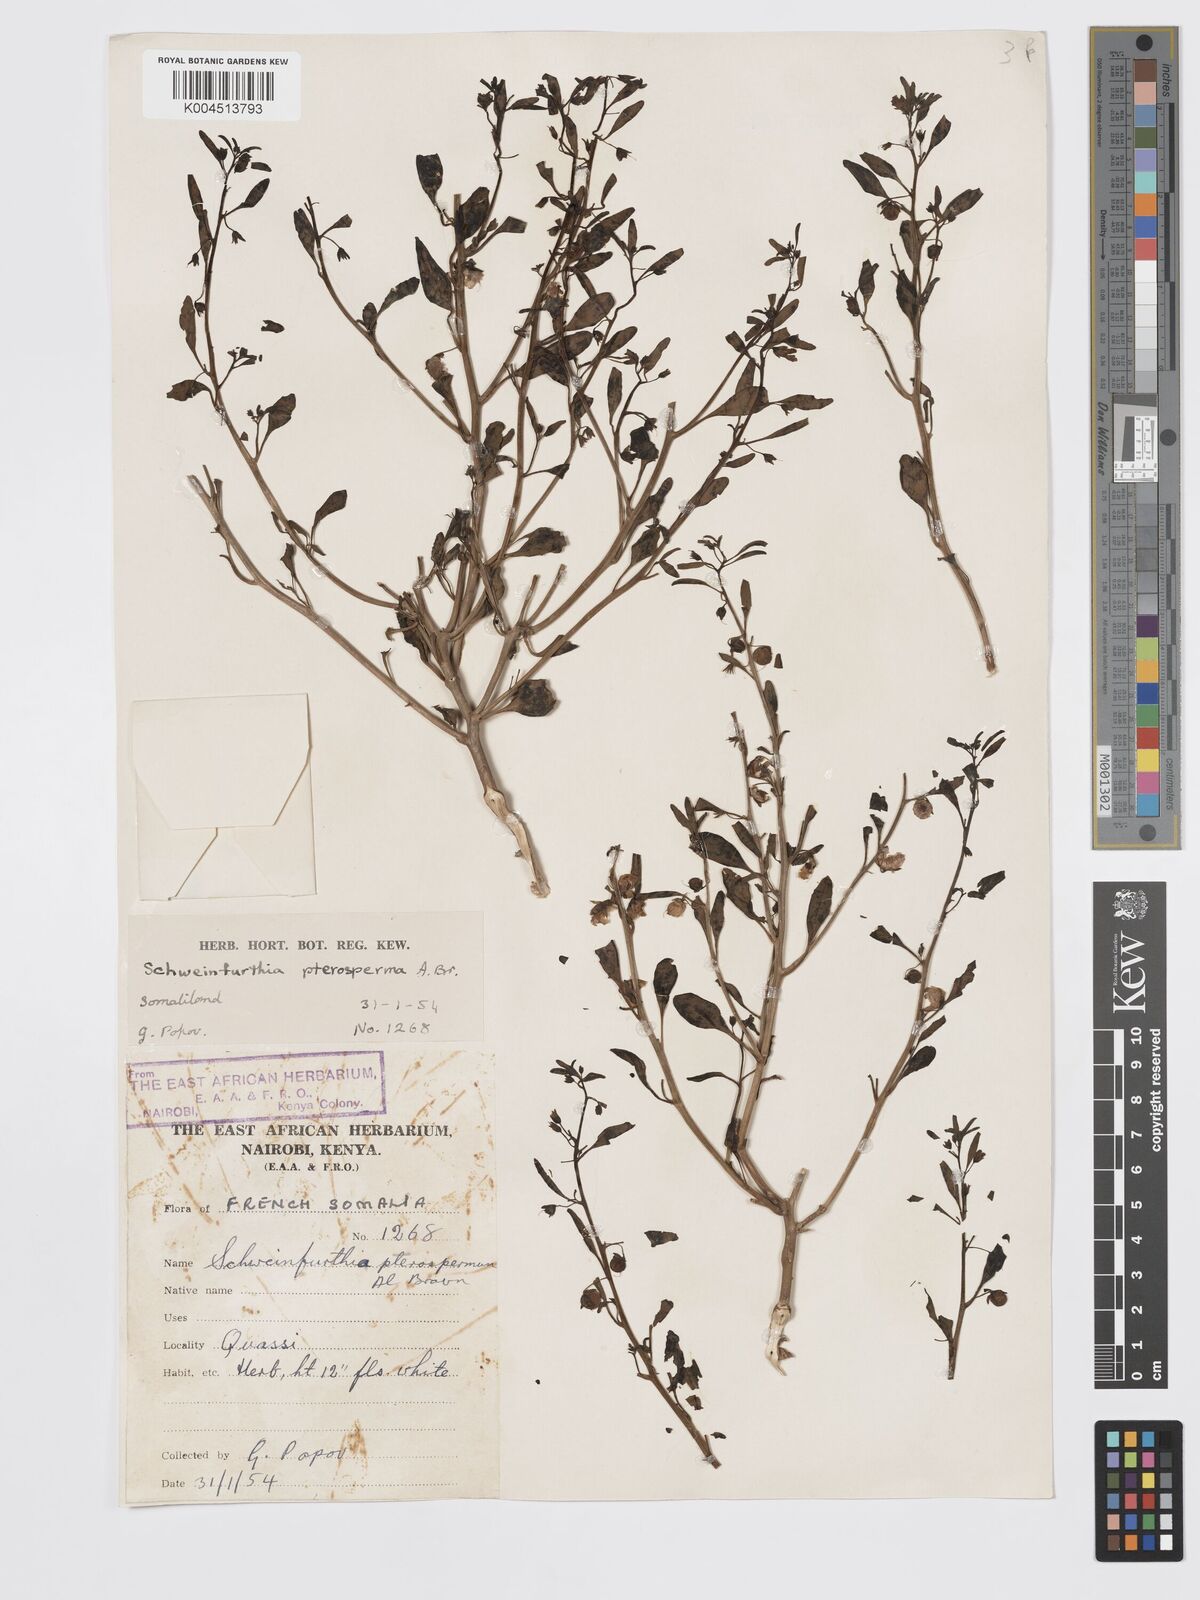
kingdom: Plantae
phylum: Tracheophyta
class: Magnoliopsida
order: Lamiales
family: Plantaginaceae
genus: Schweinfurthia
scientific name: Schweinfurthia pterosperma
